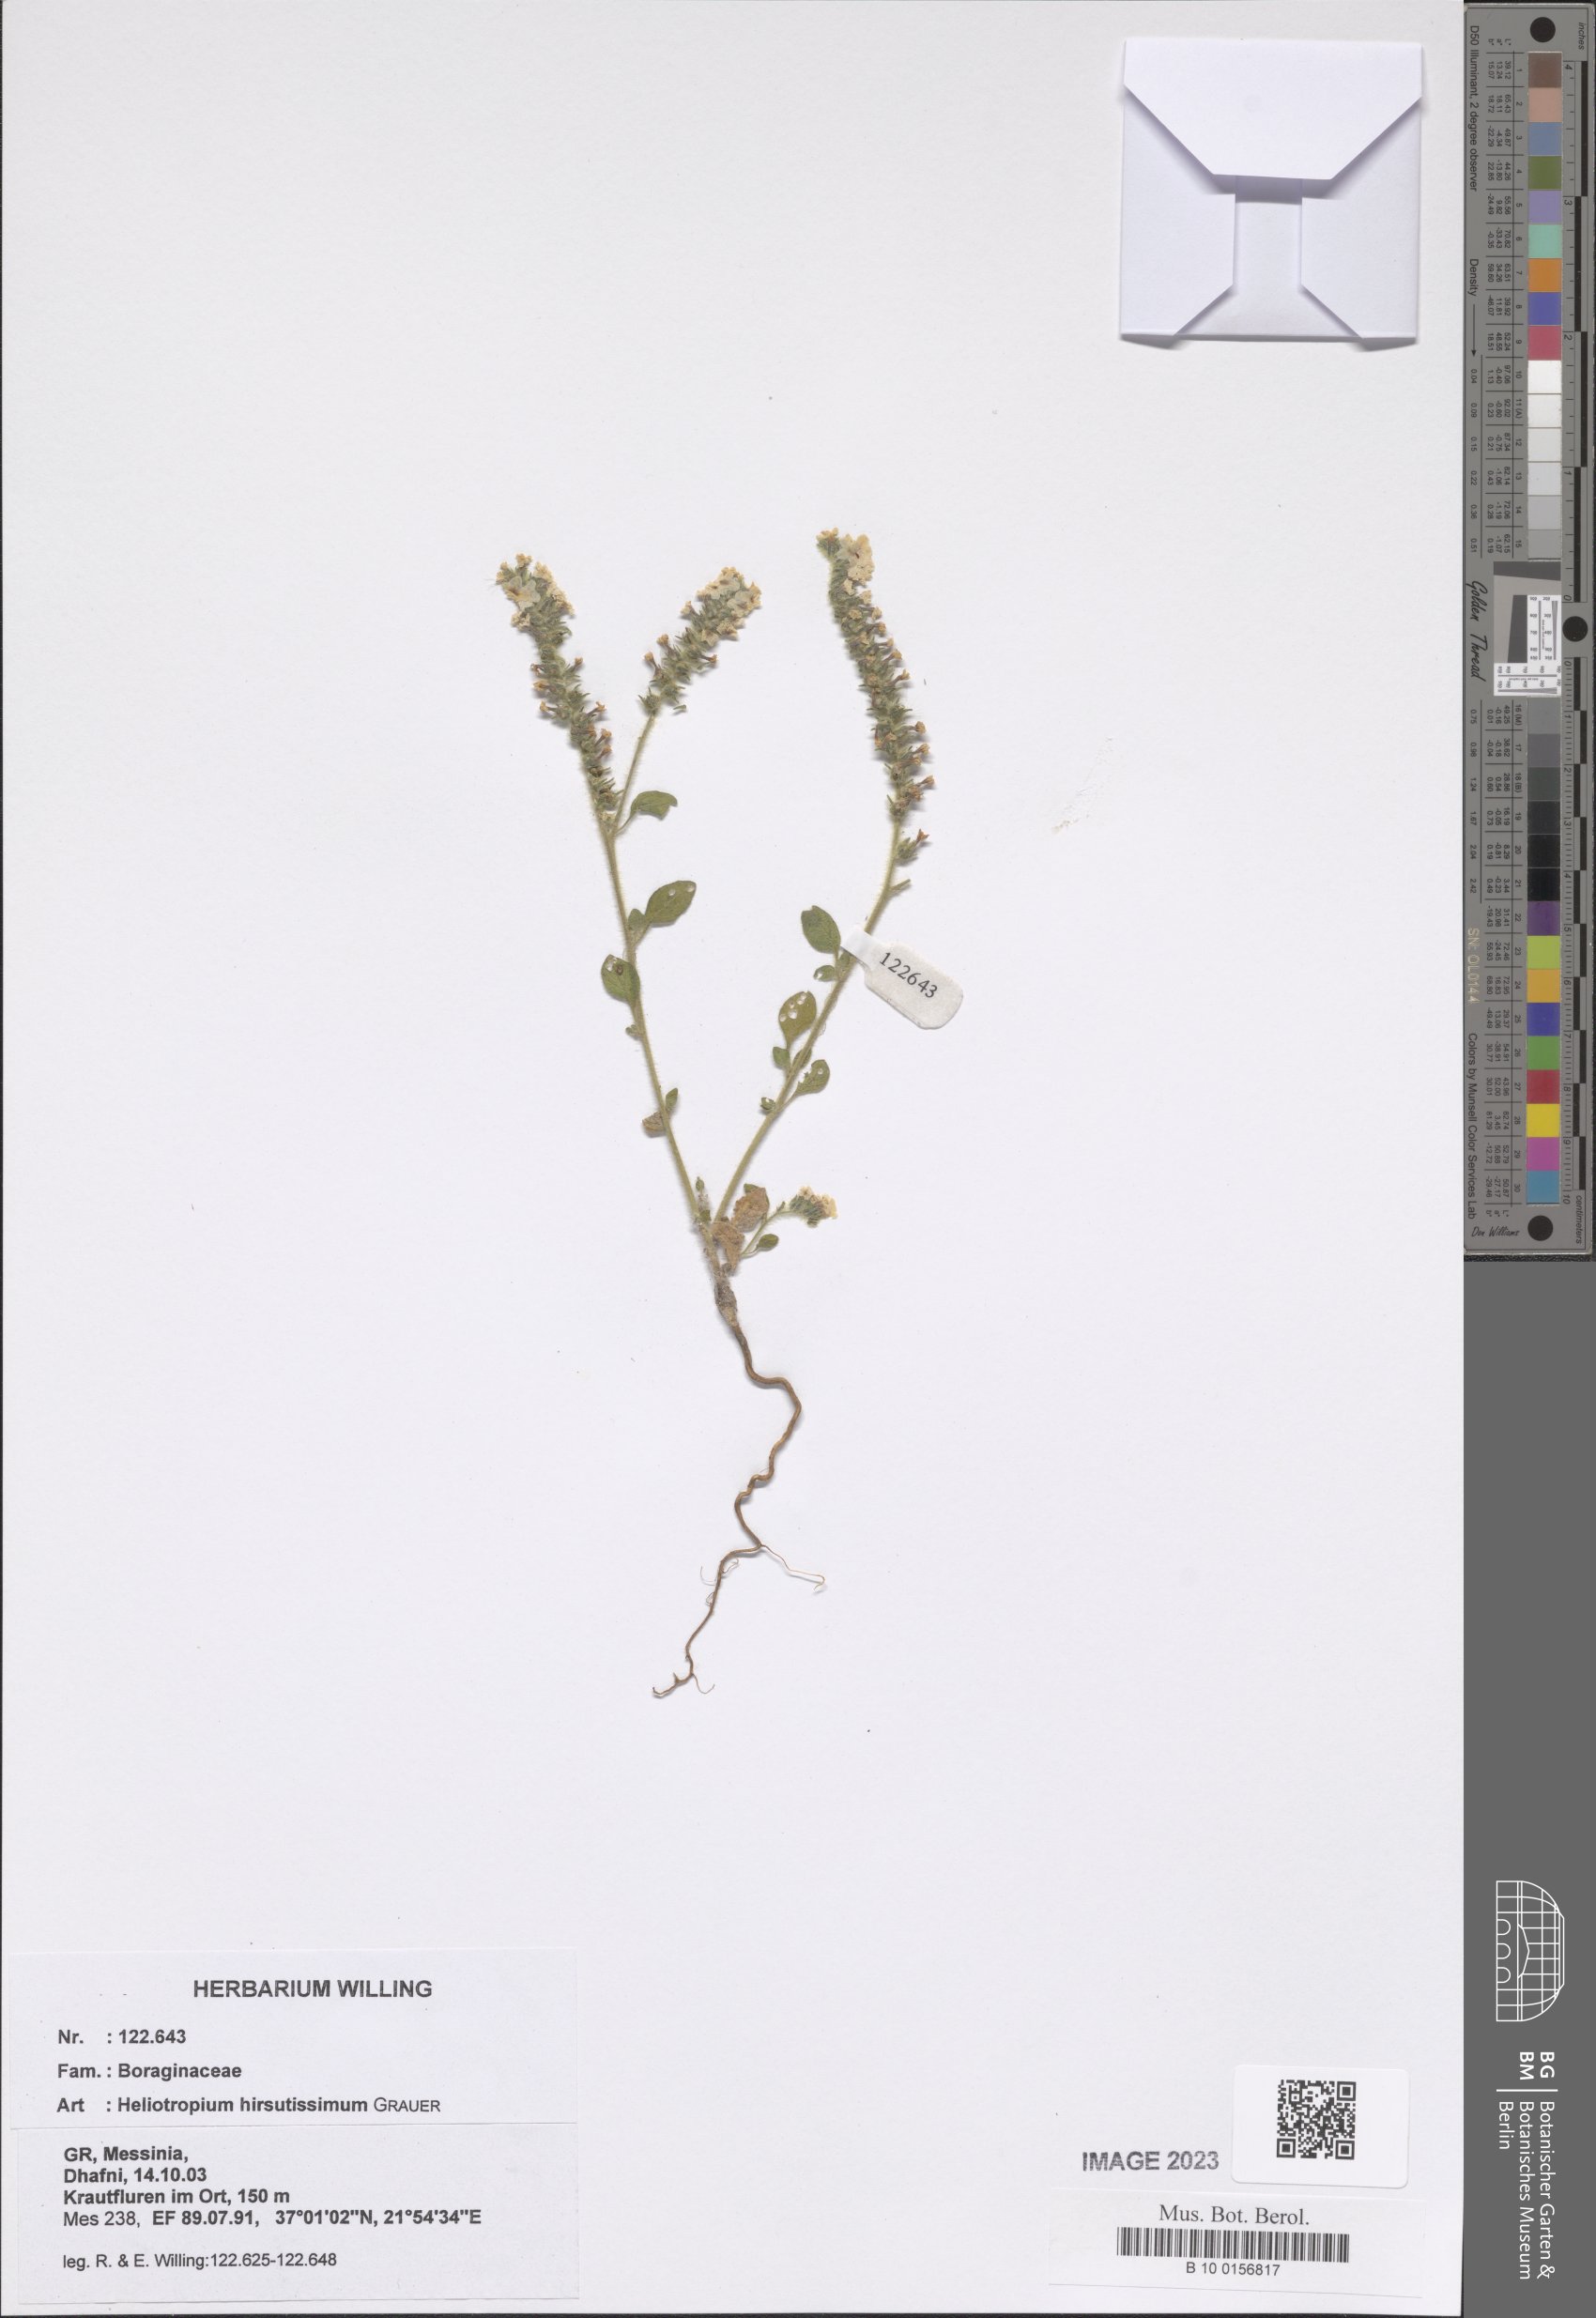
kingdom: Plantae
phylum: Tracheophyta
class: Magnoliopsida
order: Boraginales
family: Heliotropiaceae
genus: Heliotropium
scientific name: Heliotropium hirsutissimum
